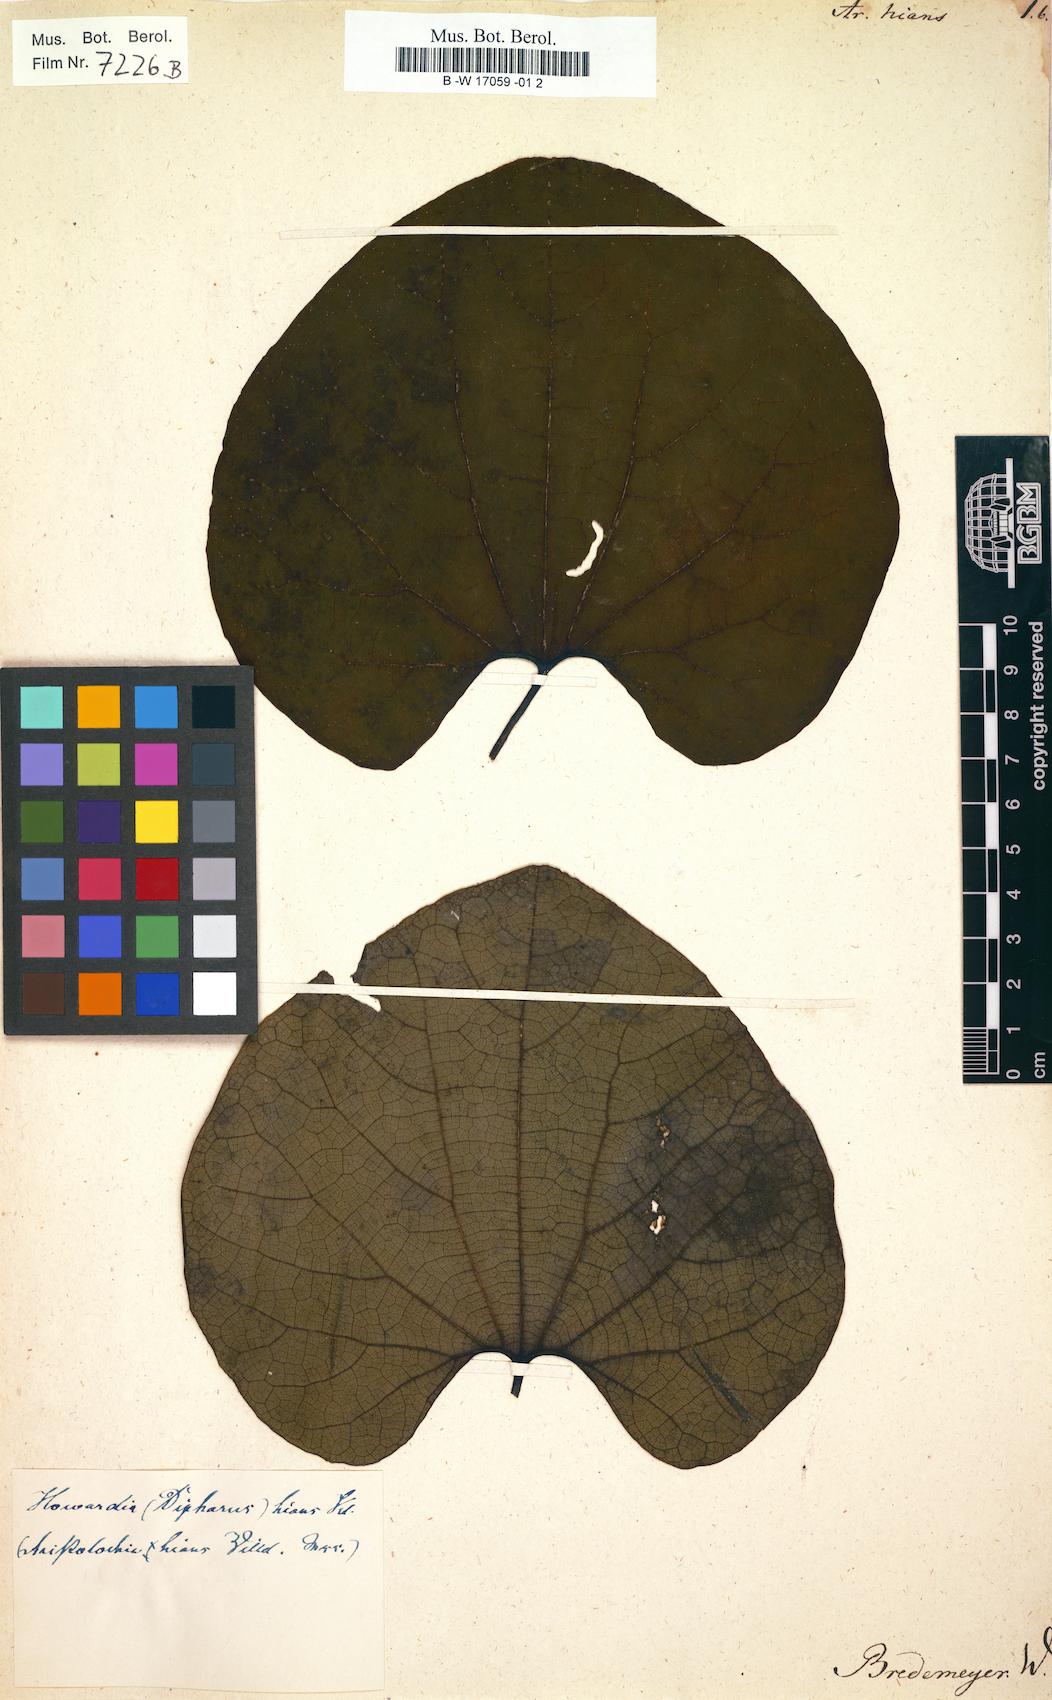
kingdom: Plantae
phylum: Tracheophyta
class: Magnoliopsida
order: Piperales
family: Aristolochiaceae
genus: Aristolochia
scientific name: Aristolochia hians
